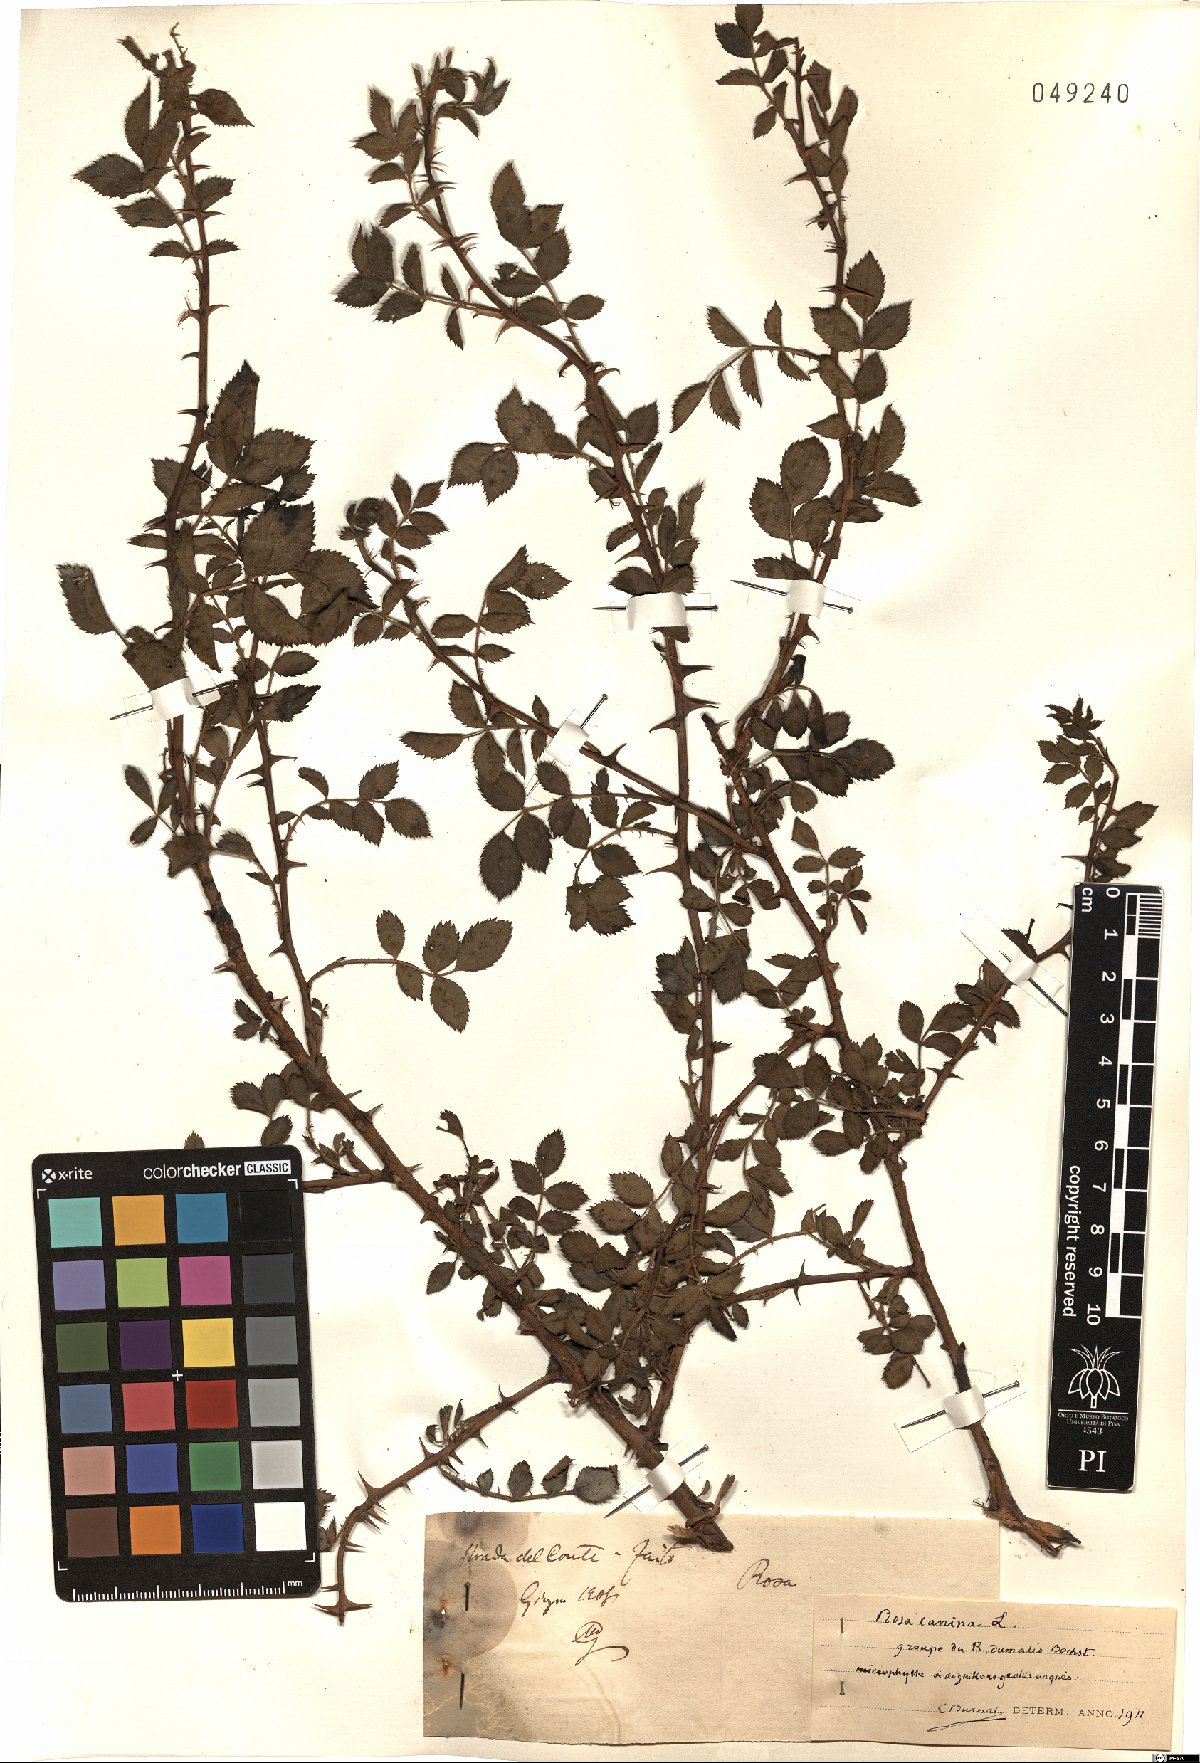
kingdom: Plantae
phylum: Tracheophyta
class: Magnoliopsida
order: Rosales
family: Rosaceae
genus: Rosa
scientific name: Rosa canina
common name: Dog rose
